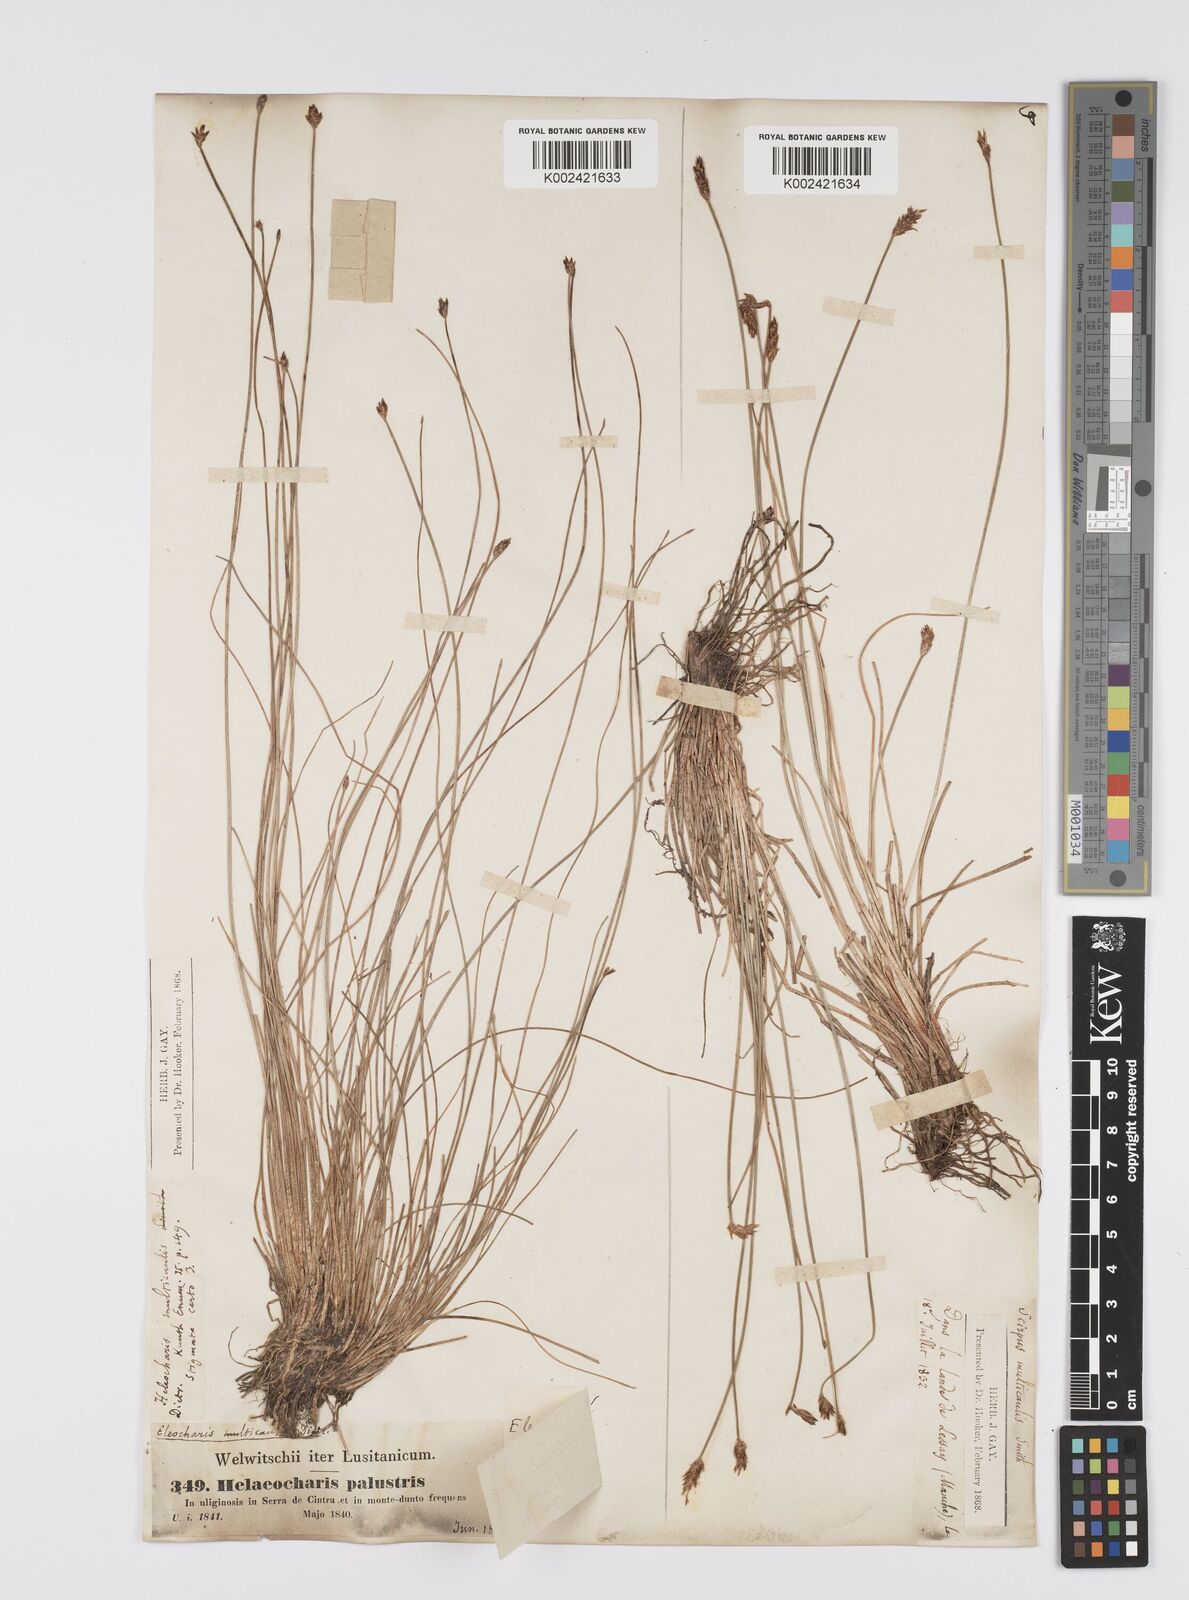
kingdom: Plantae
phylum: Tracheophyta
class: Liliopsida
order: Poales
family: Cyperaceae
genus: Eleocharis
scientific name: Eleocharis multicaulis
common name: Many-stalked spike-rush
